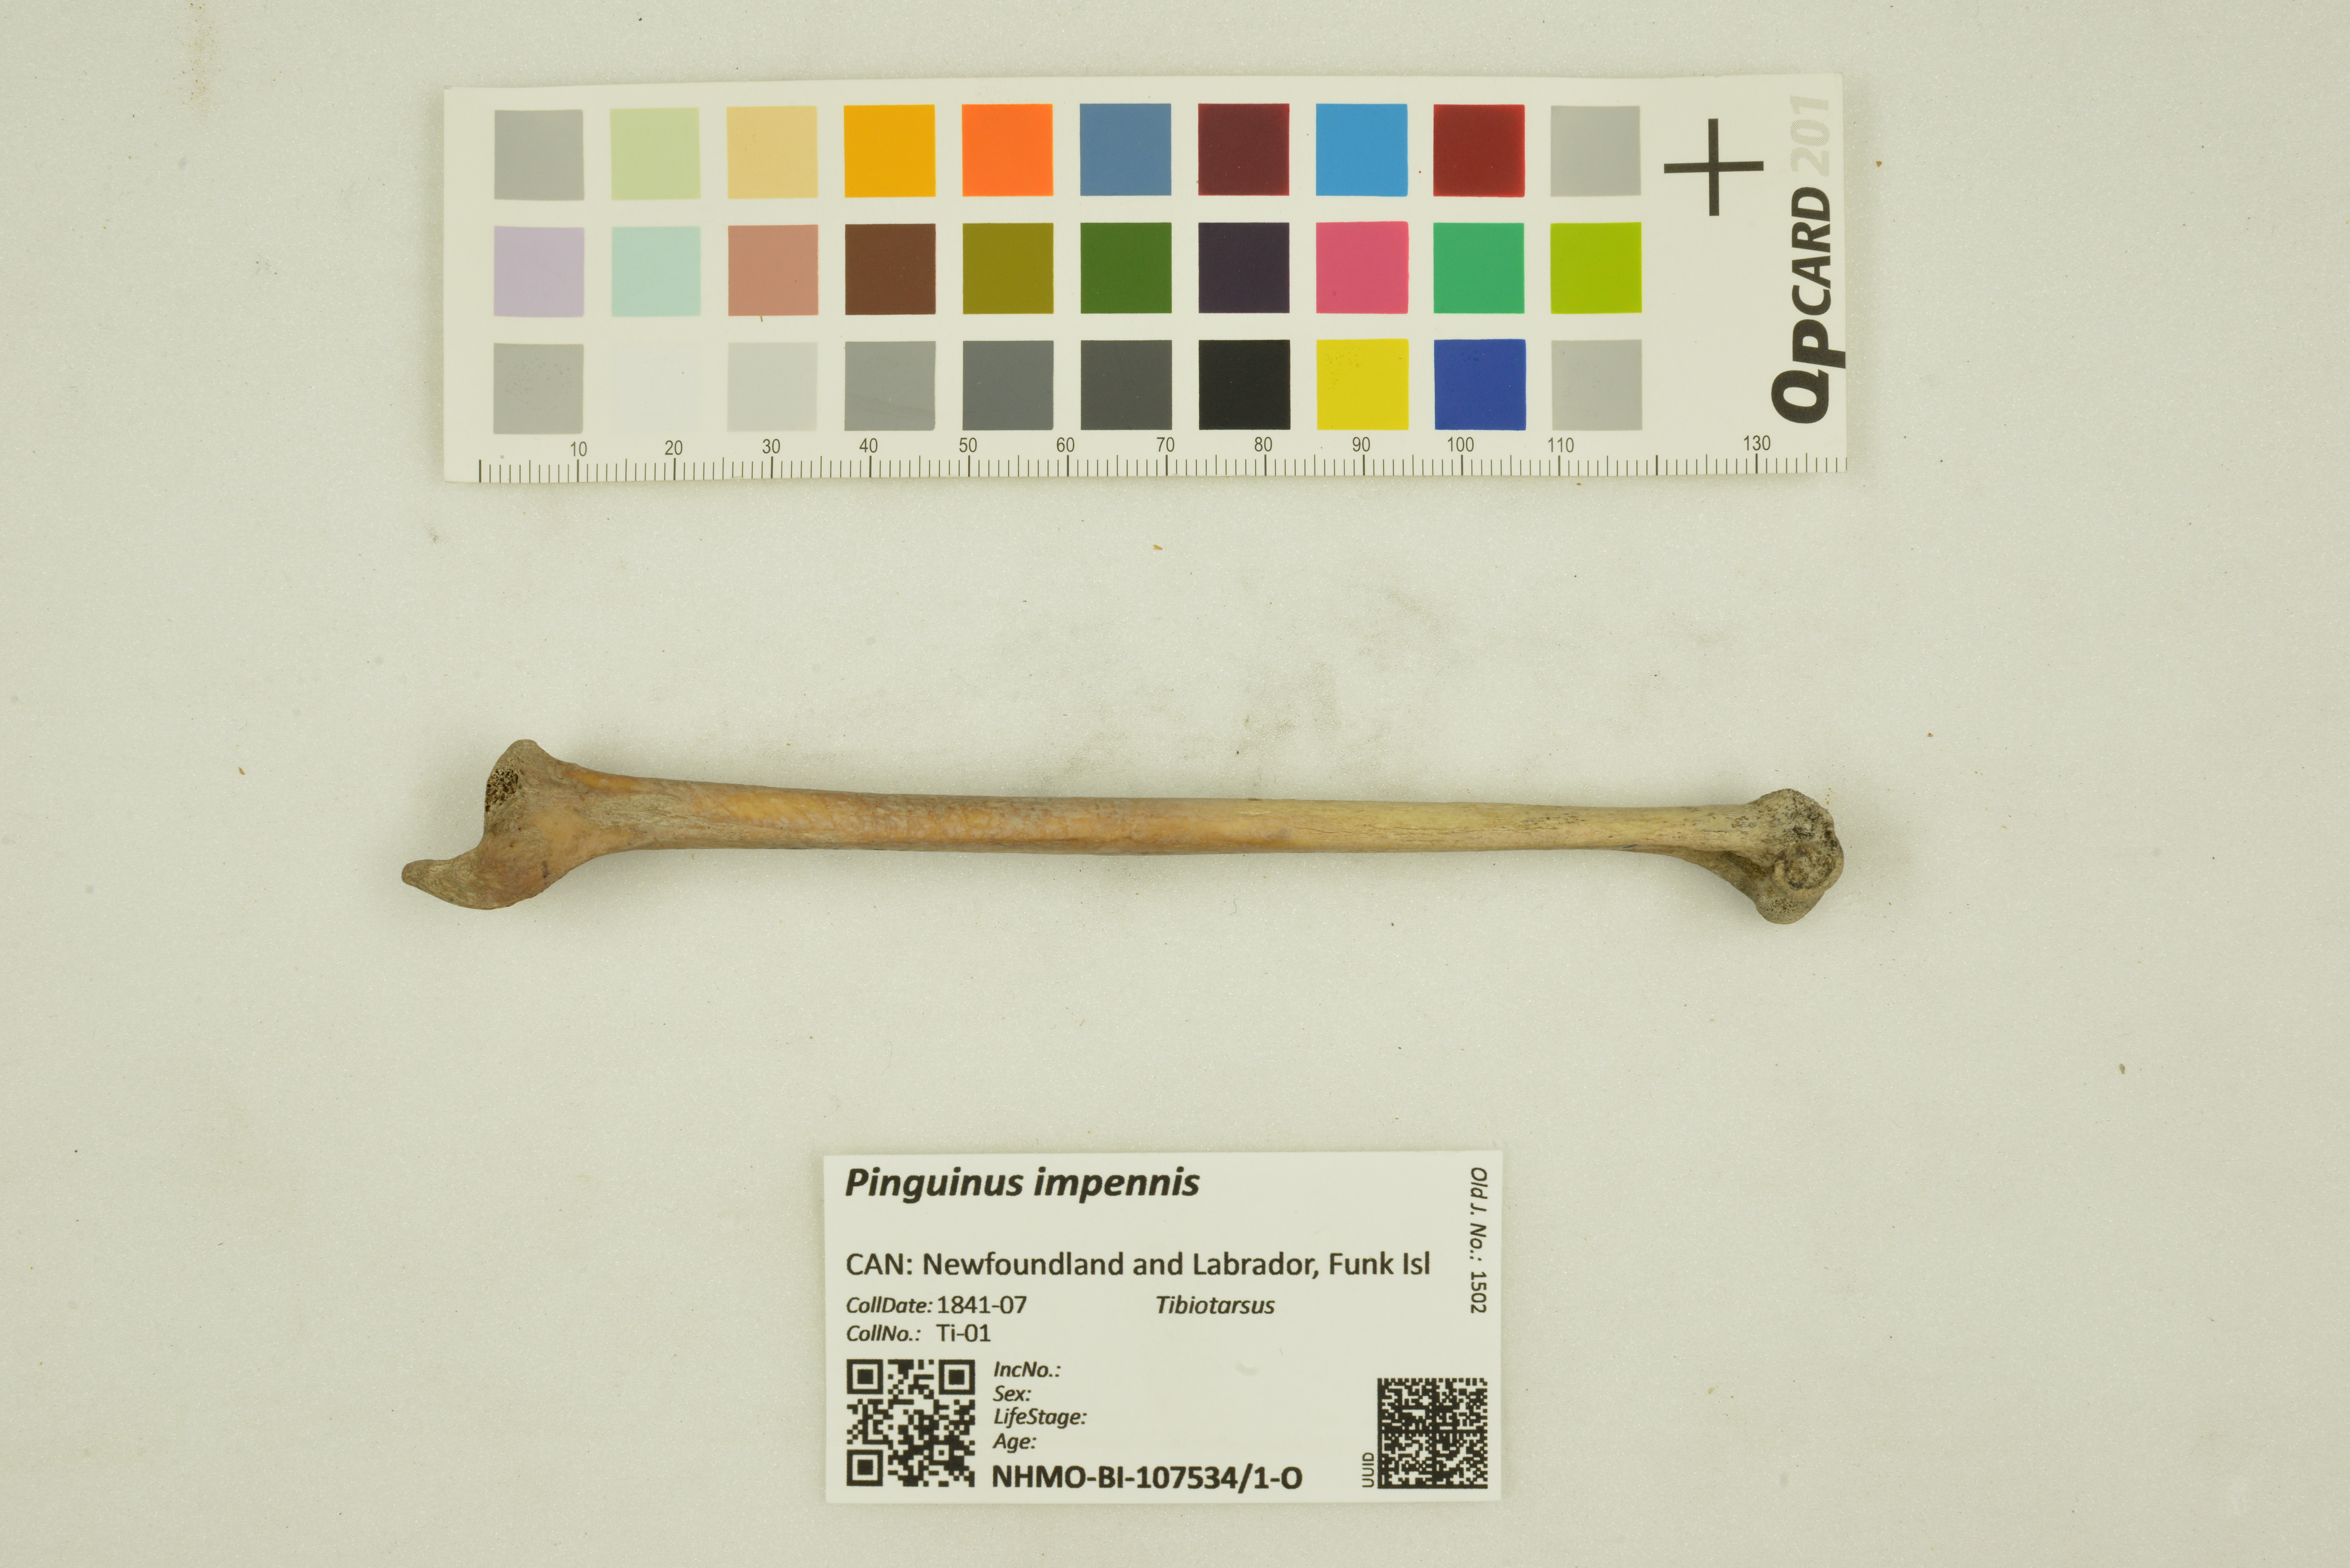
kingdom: Animalia
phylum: Chordata
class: Aves
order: Charadriiformes
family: Alcidae
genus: Pinguinus
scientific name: Pinguinus impennis
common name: Great auk
